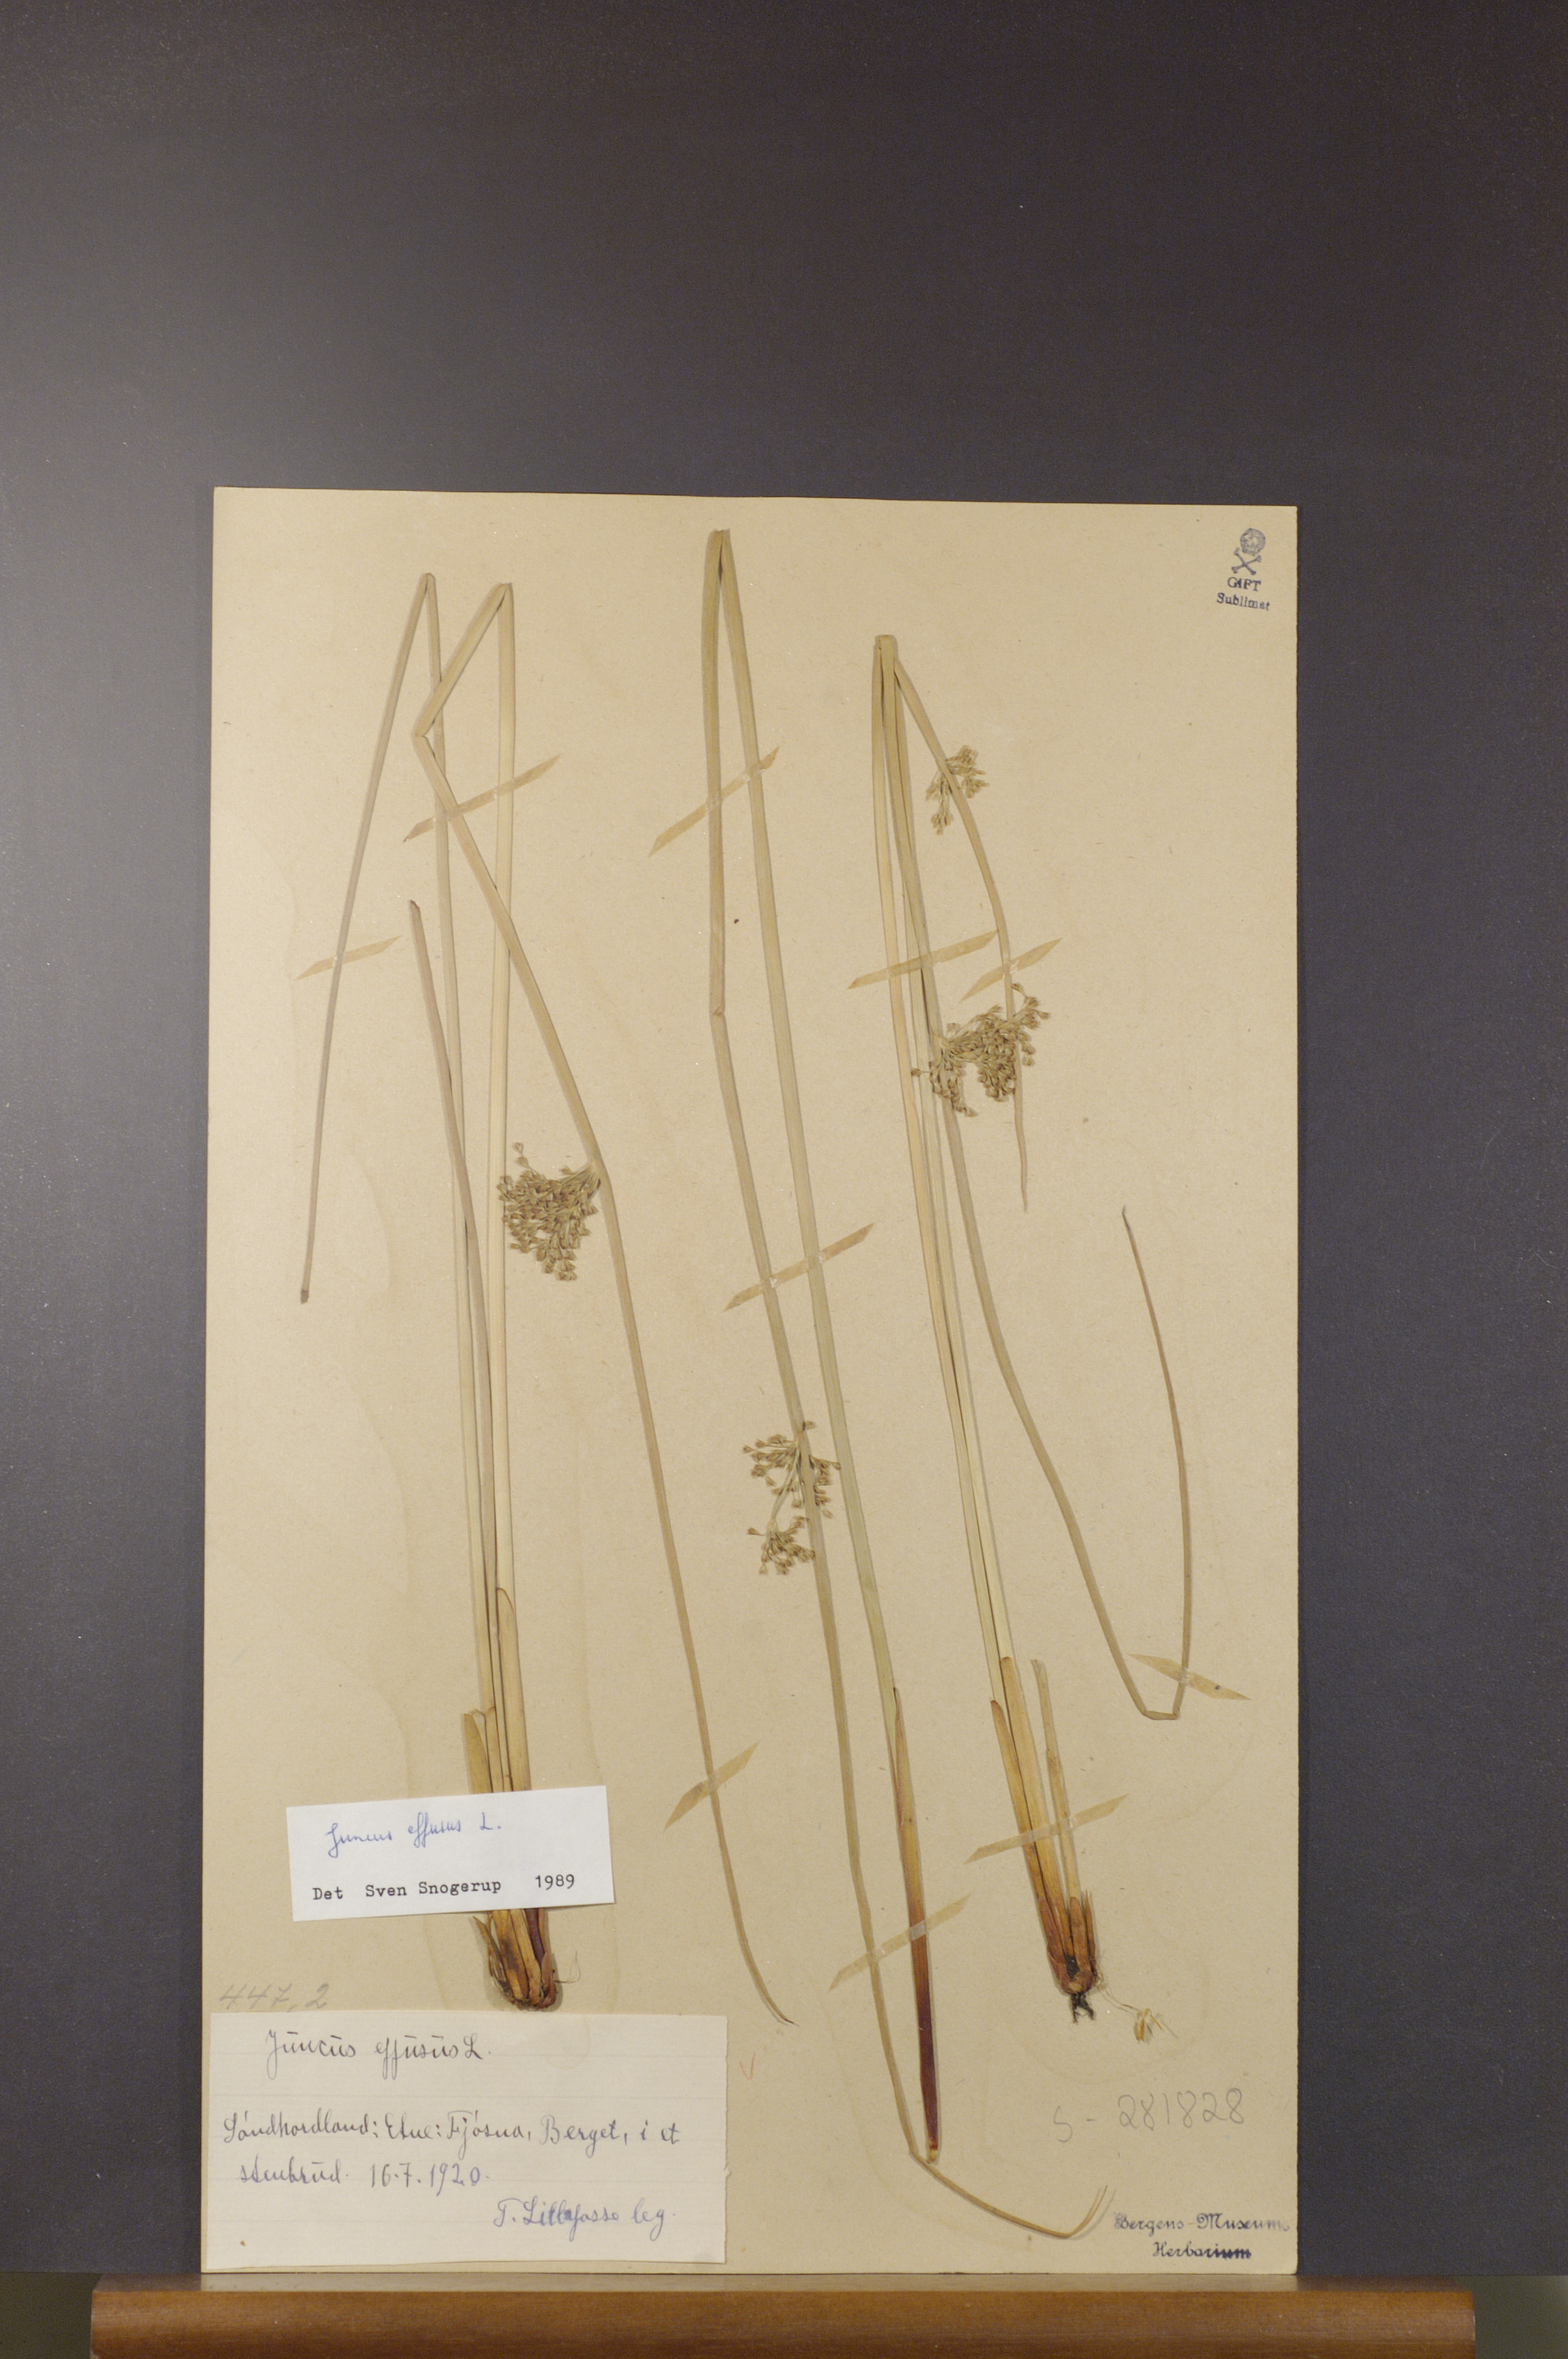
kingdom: Plantae
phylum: Tracheophyta
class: Liliopsida
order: Poales
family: Juncaceae
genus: Juncus
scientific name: Juncus effusus
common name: Soft rush
